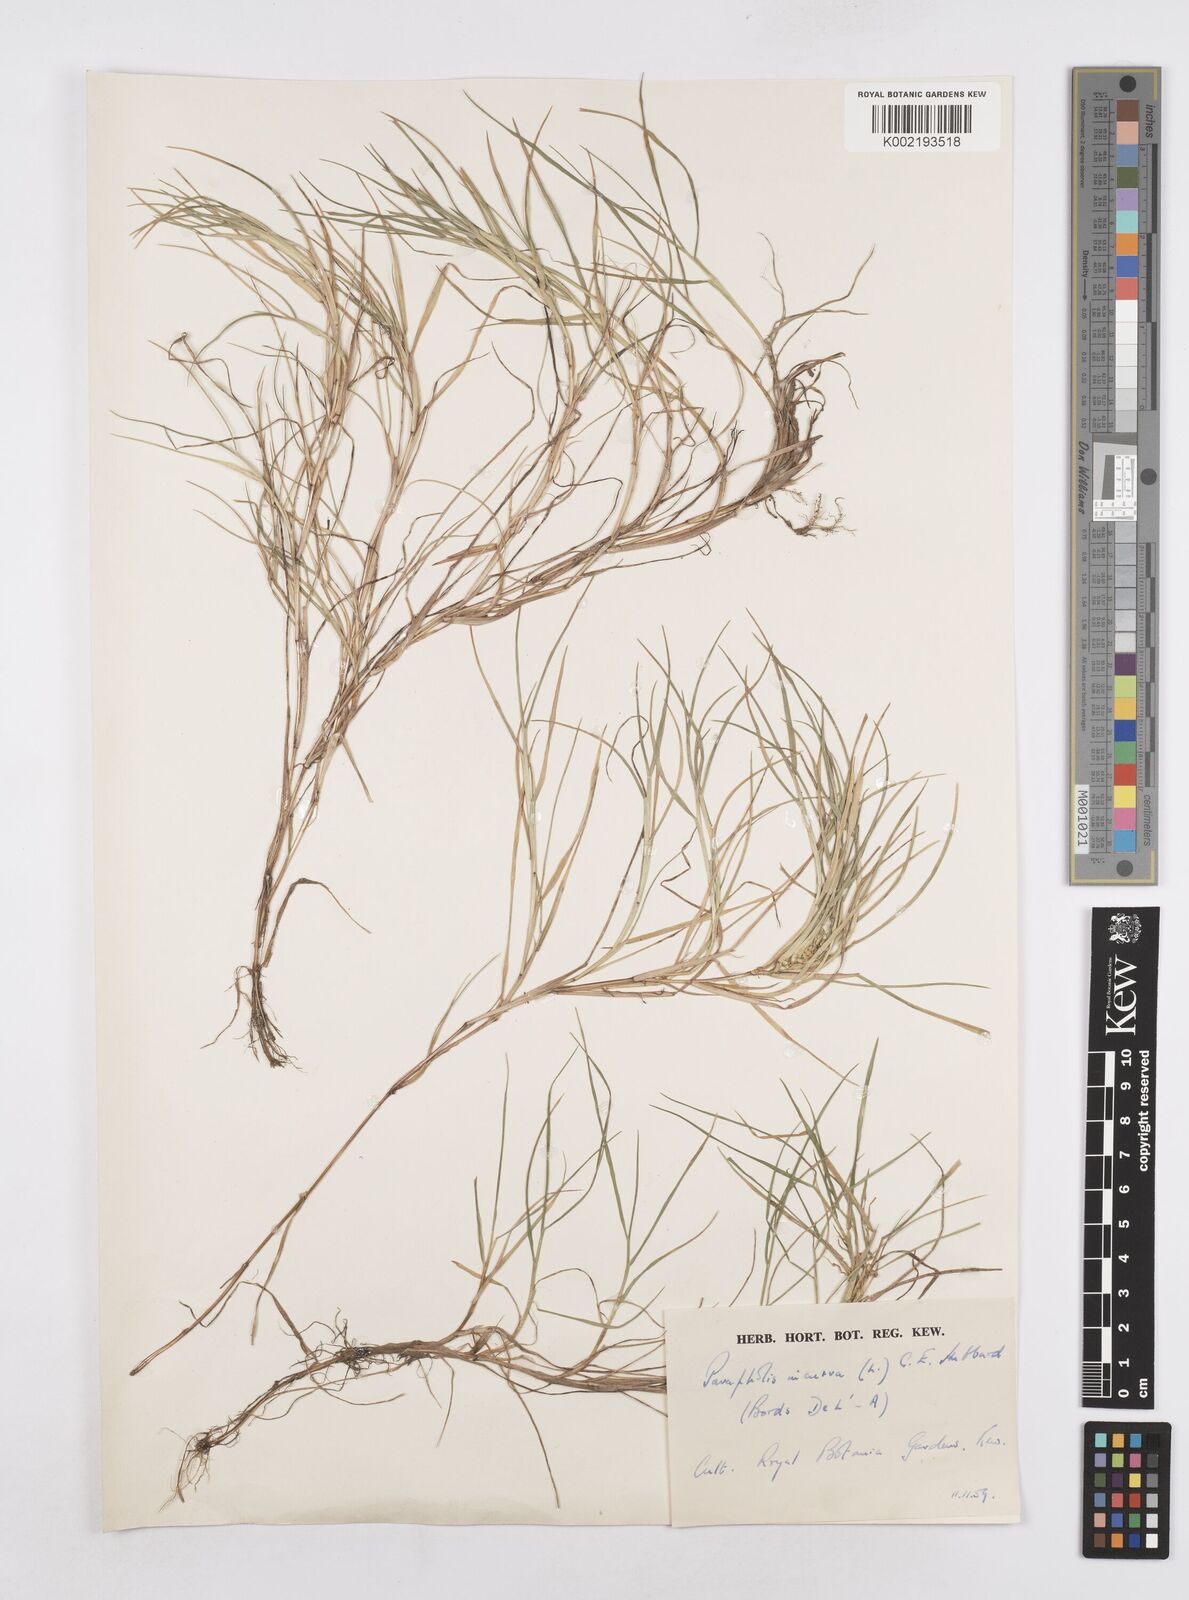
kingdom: Plantae
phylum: Tracheophyta
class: Liliopsida
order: Poales
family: Poaceae
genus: Parapholis
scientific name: Parapholis incurva
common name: Curved sicklegrass
